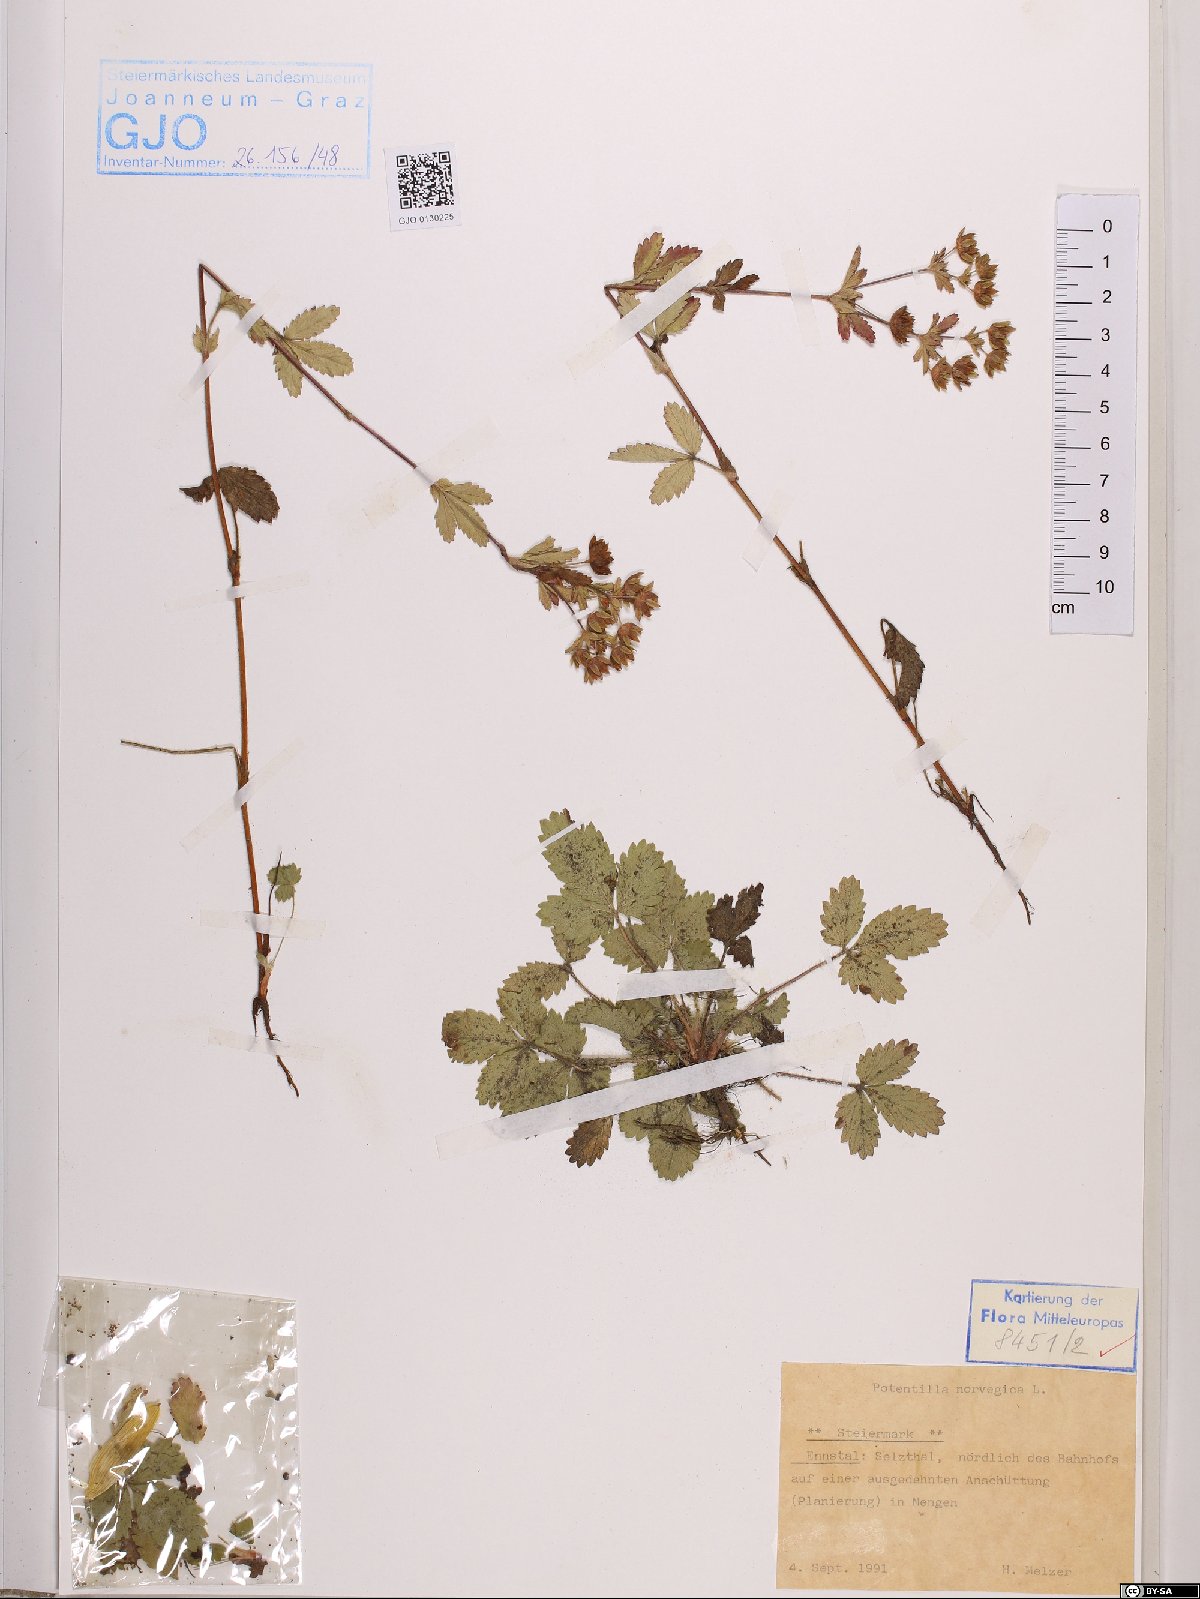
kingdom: Plantae
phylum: Tracheophyta
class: Magnoliopsida
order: Rosales
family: Rosaceae
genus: Potentilla
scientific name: Potentilla norvegica
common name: Ternate-leaved cinquefoil
